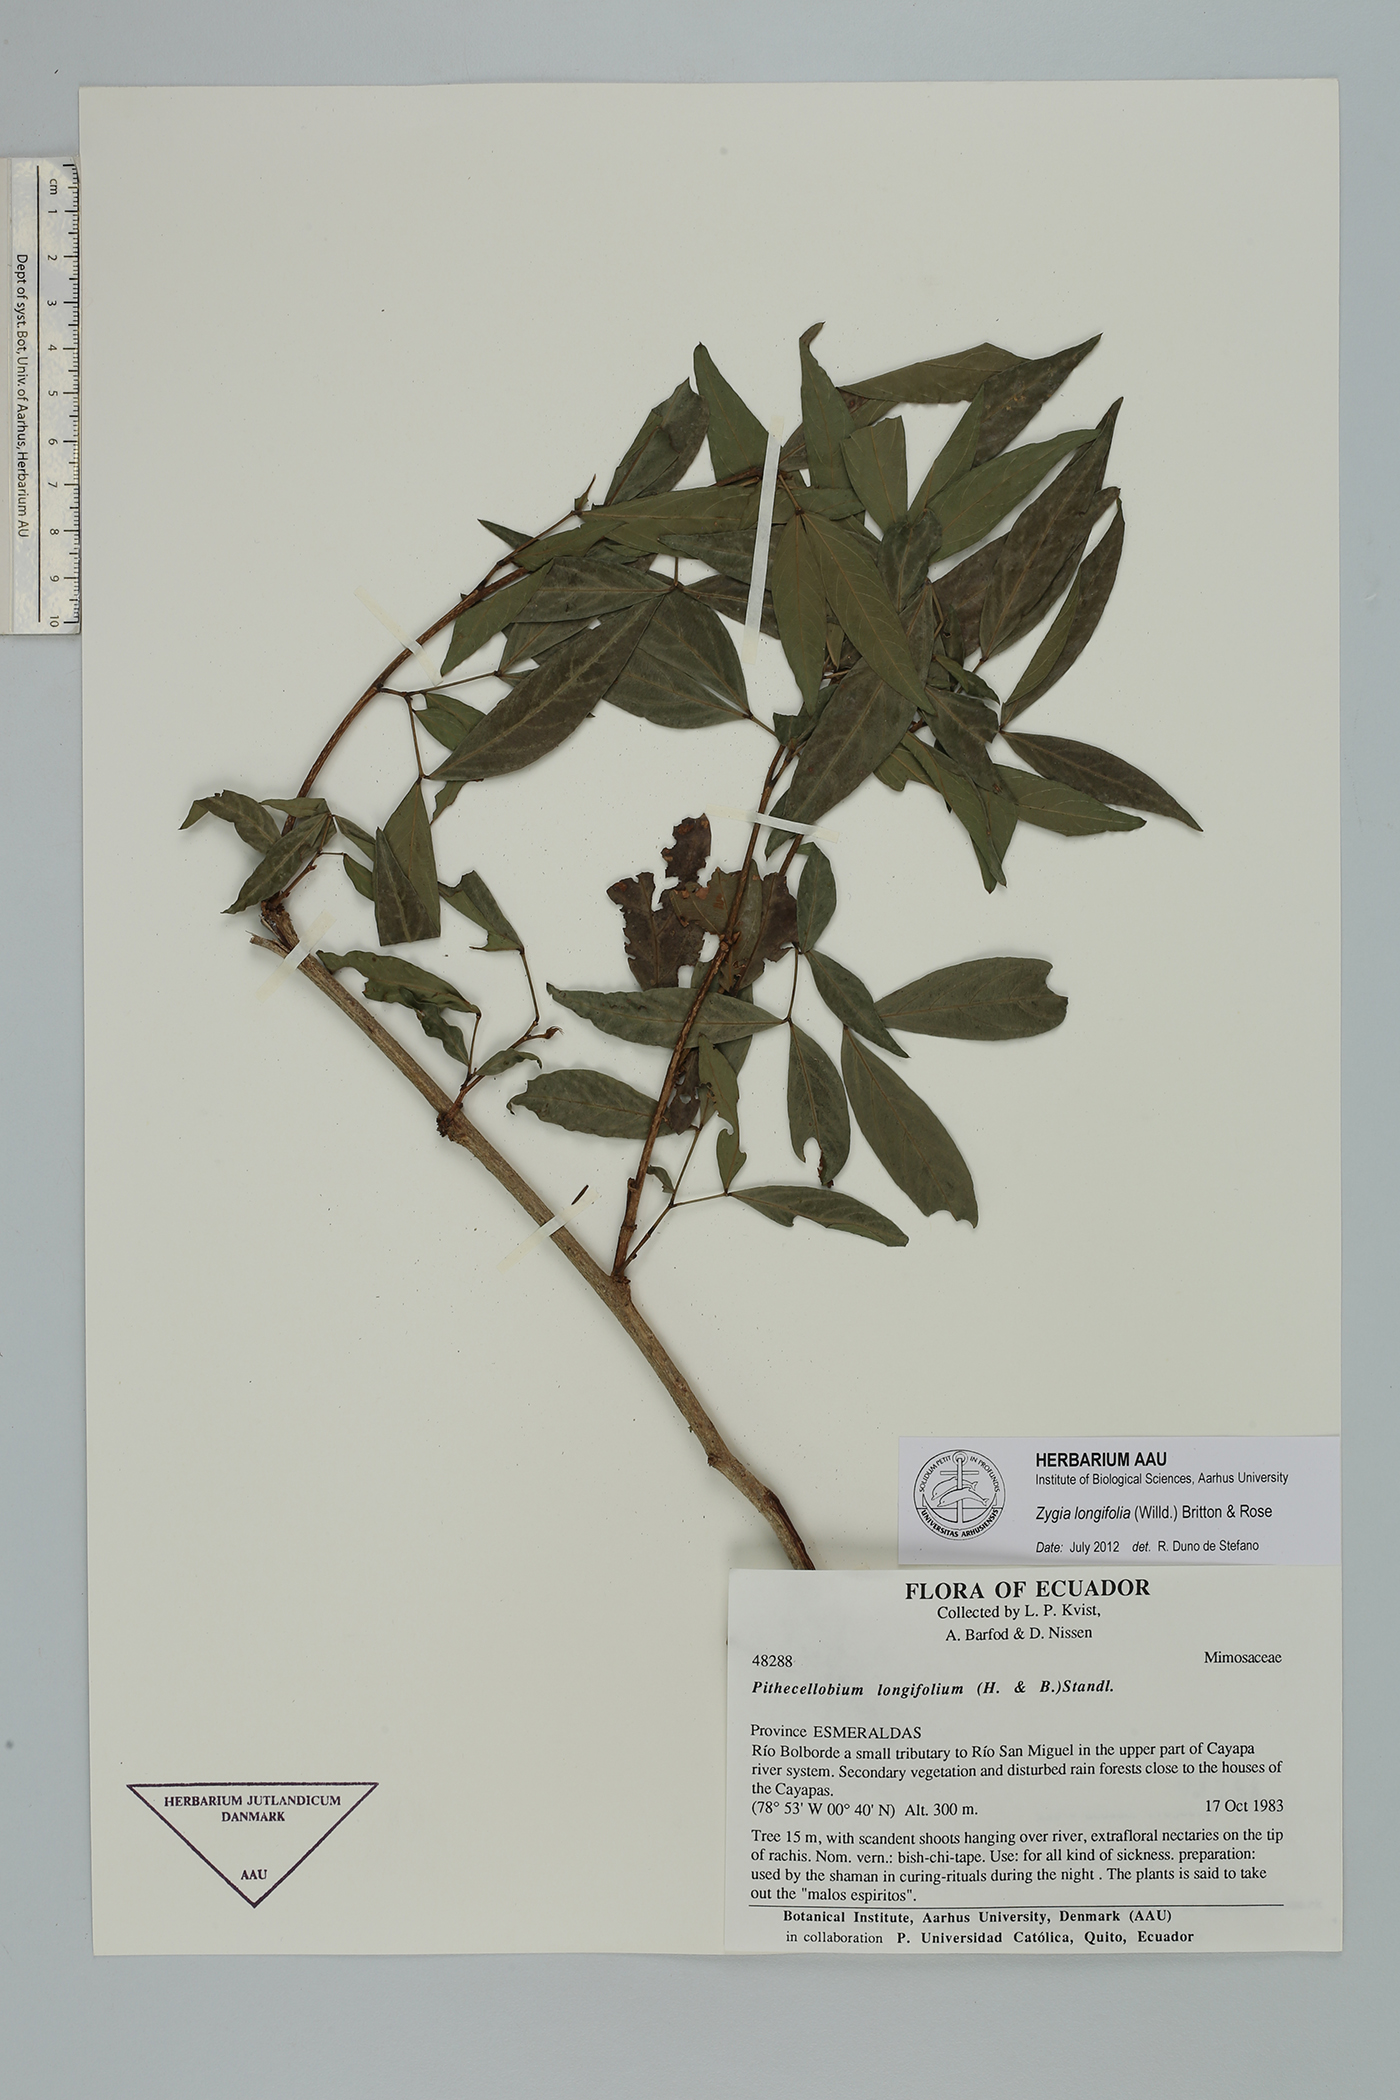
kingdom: Plantae
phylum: Tracheophyta
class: Magnoliopsida
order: Fabales
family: Fabaceae
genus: Zygia
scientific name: Zygia longifolia
